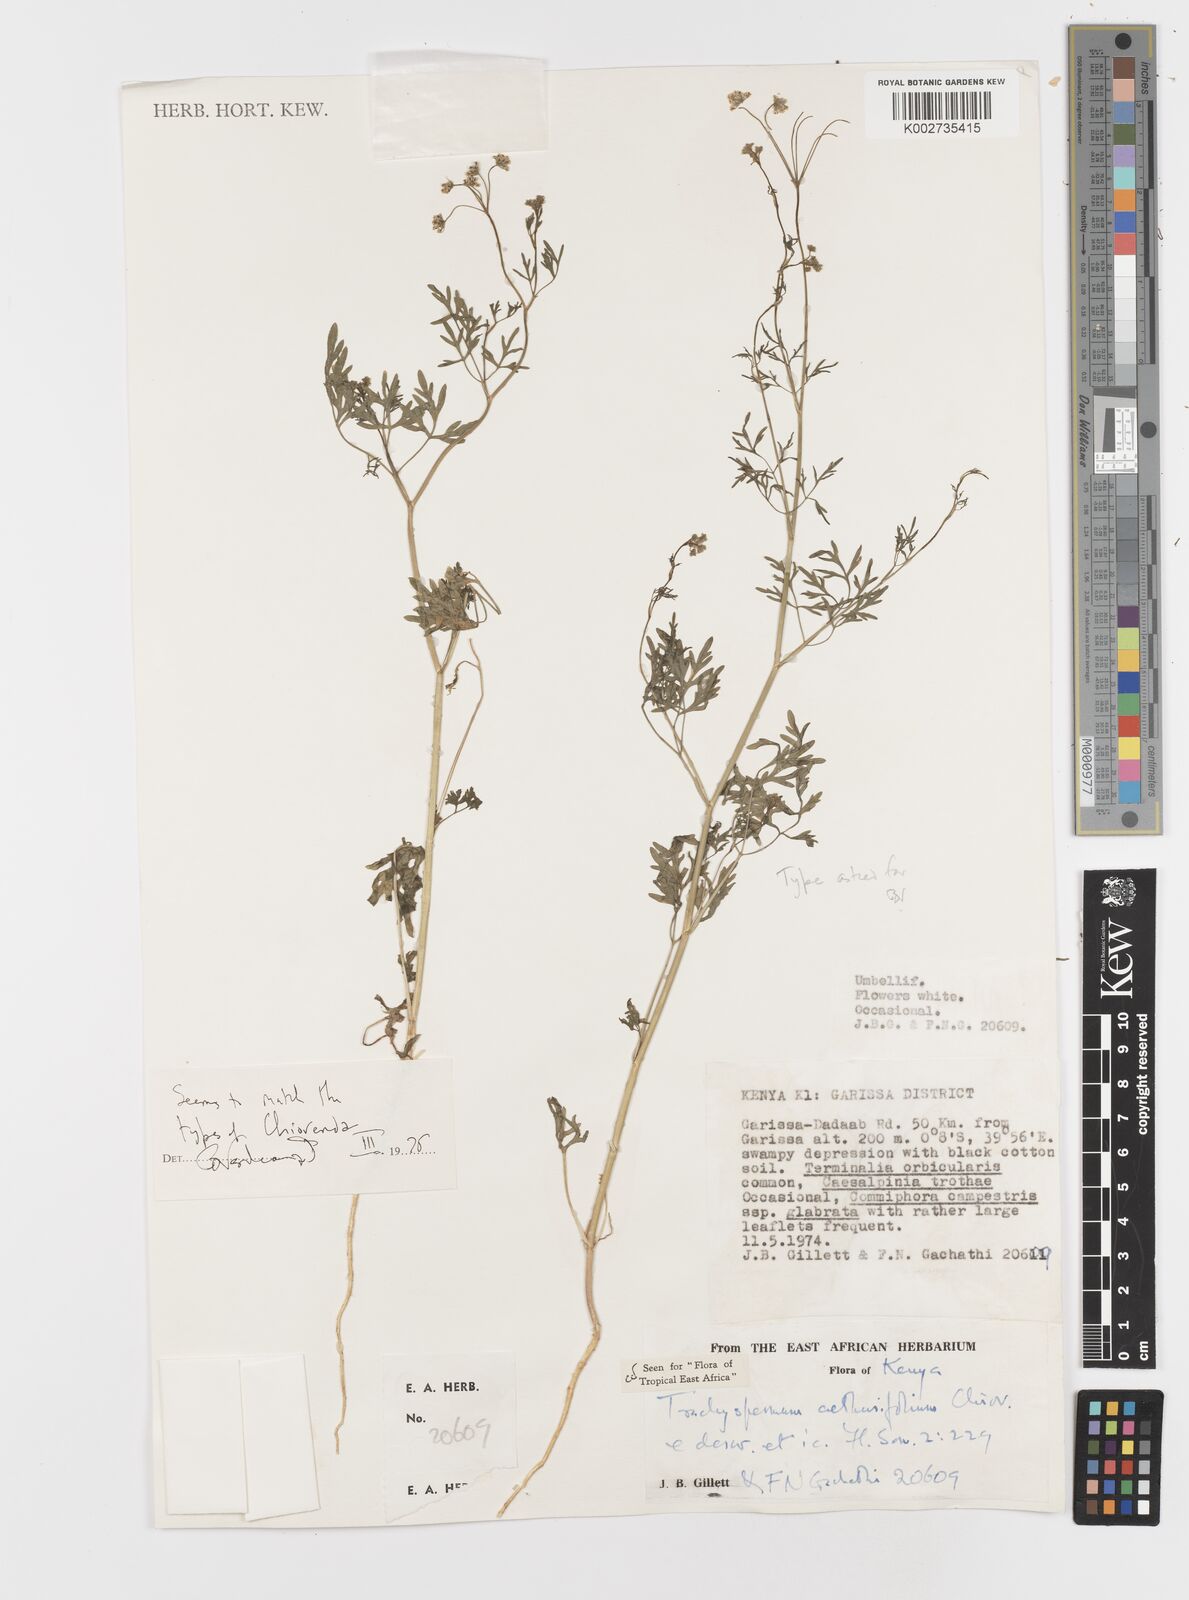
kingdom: Plantae
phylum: Tracheophyta
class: Magnoliopsida
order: Apiales
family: Apiaceae
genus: Trachyspermum
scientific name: Trachyspermum pimpinelloides
